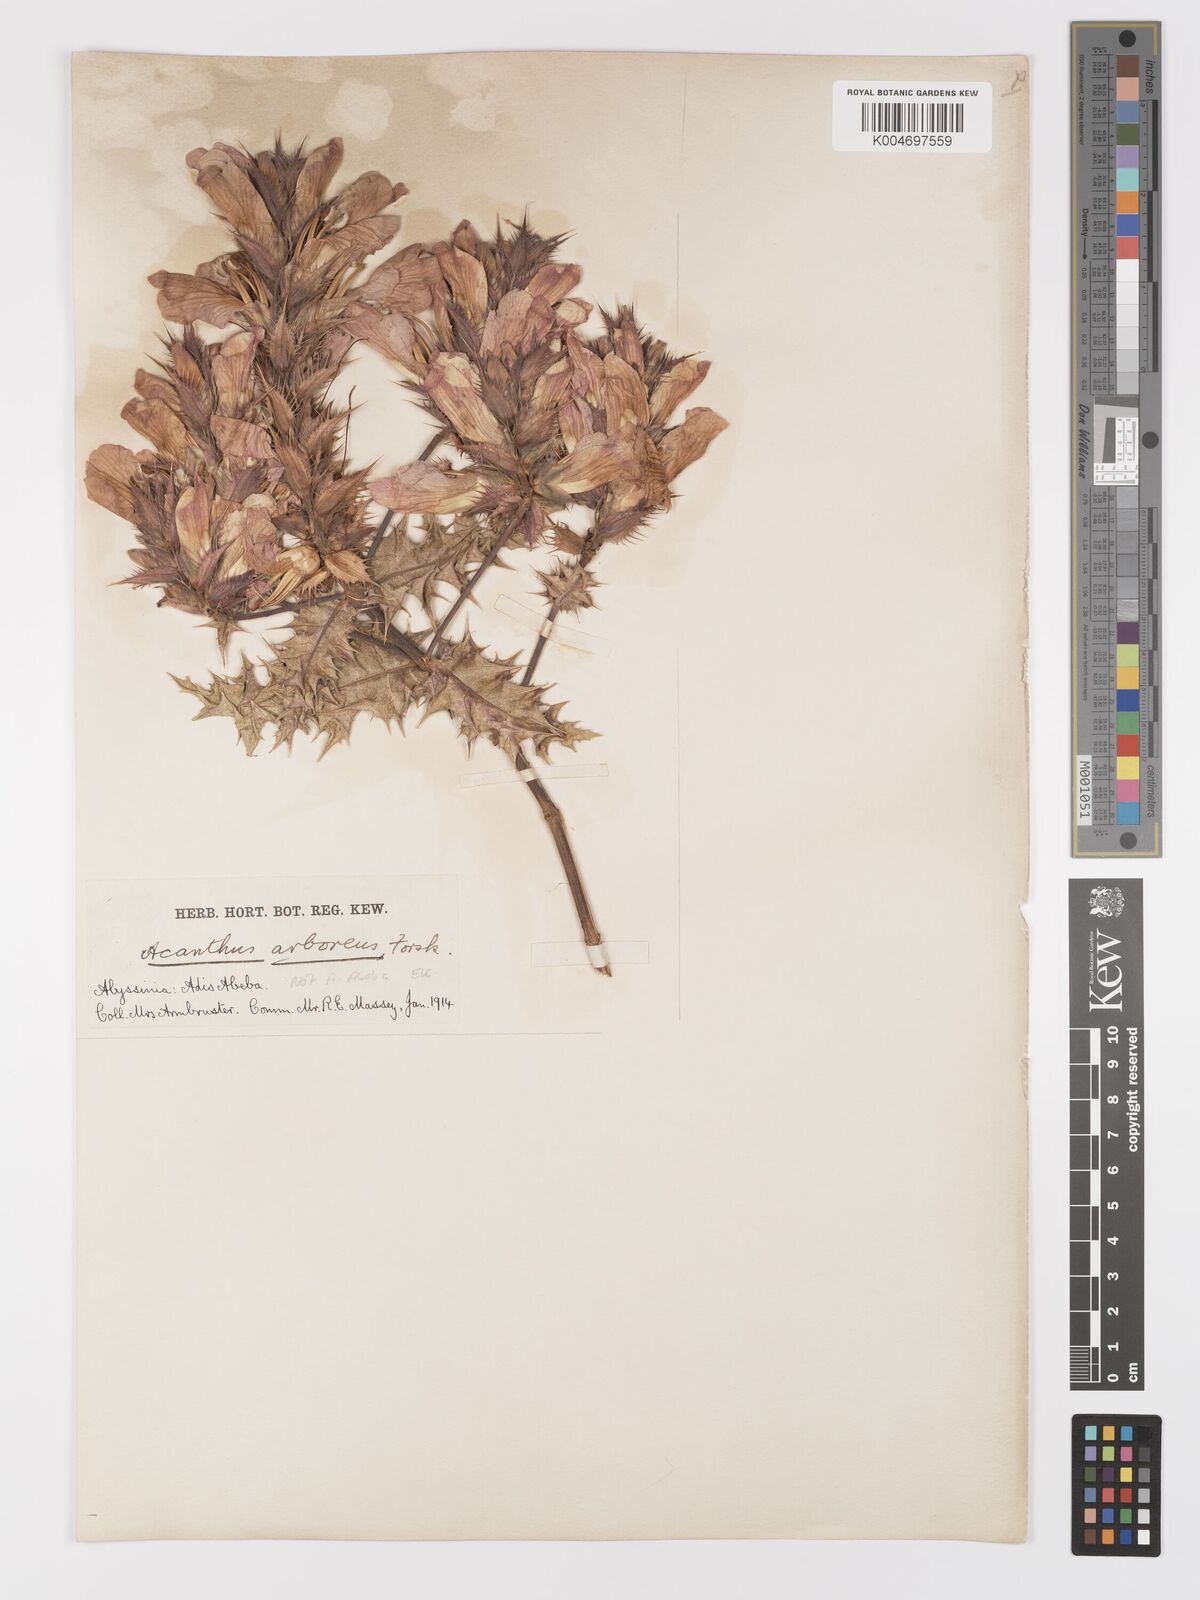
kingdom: Plantae
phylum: Tracheophyta
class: Magnoliopsida
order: Lamiales
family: Acanthaceae
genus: Acanthus
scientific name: Acanthus polystachyus
